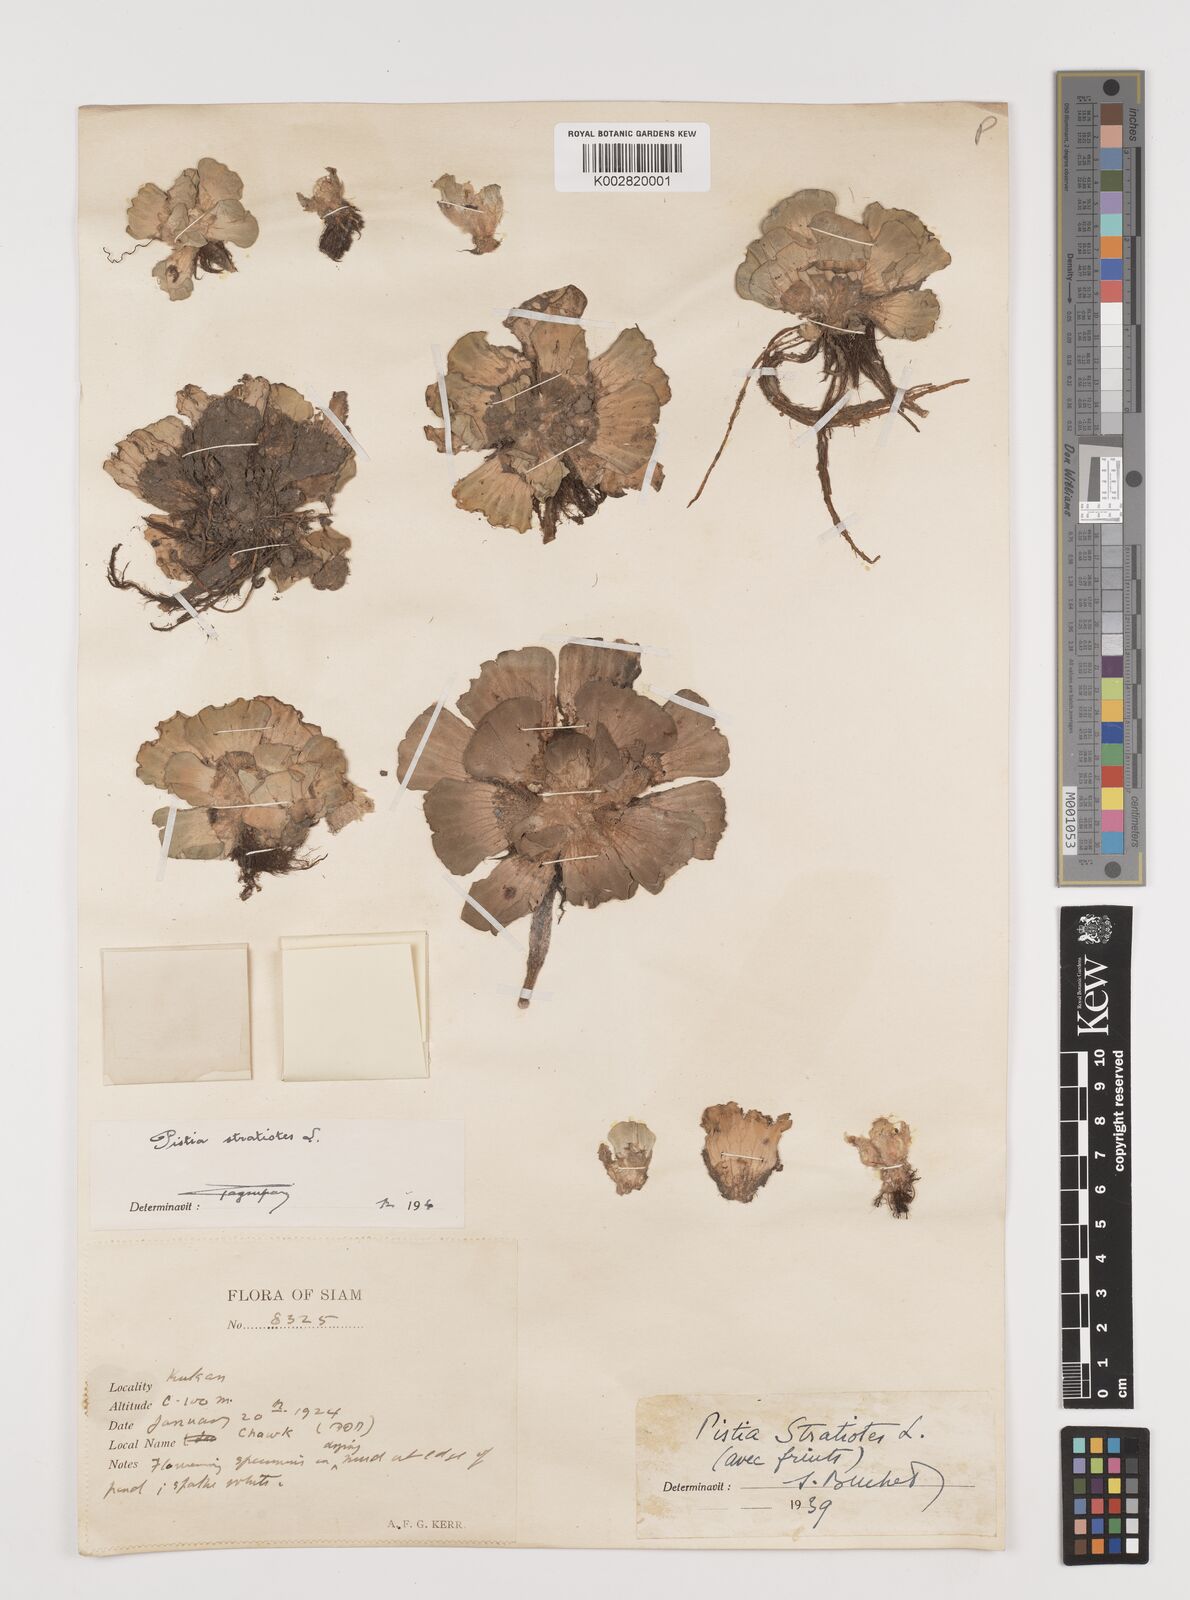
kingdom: Plantae
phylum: Tracheophyta
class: Liliopsida
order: Alismatales
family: Araceae
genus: Pistia
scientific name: Pistia stratiotes
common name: Water lettuce
